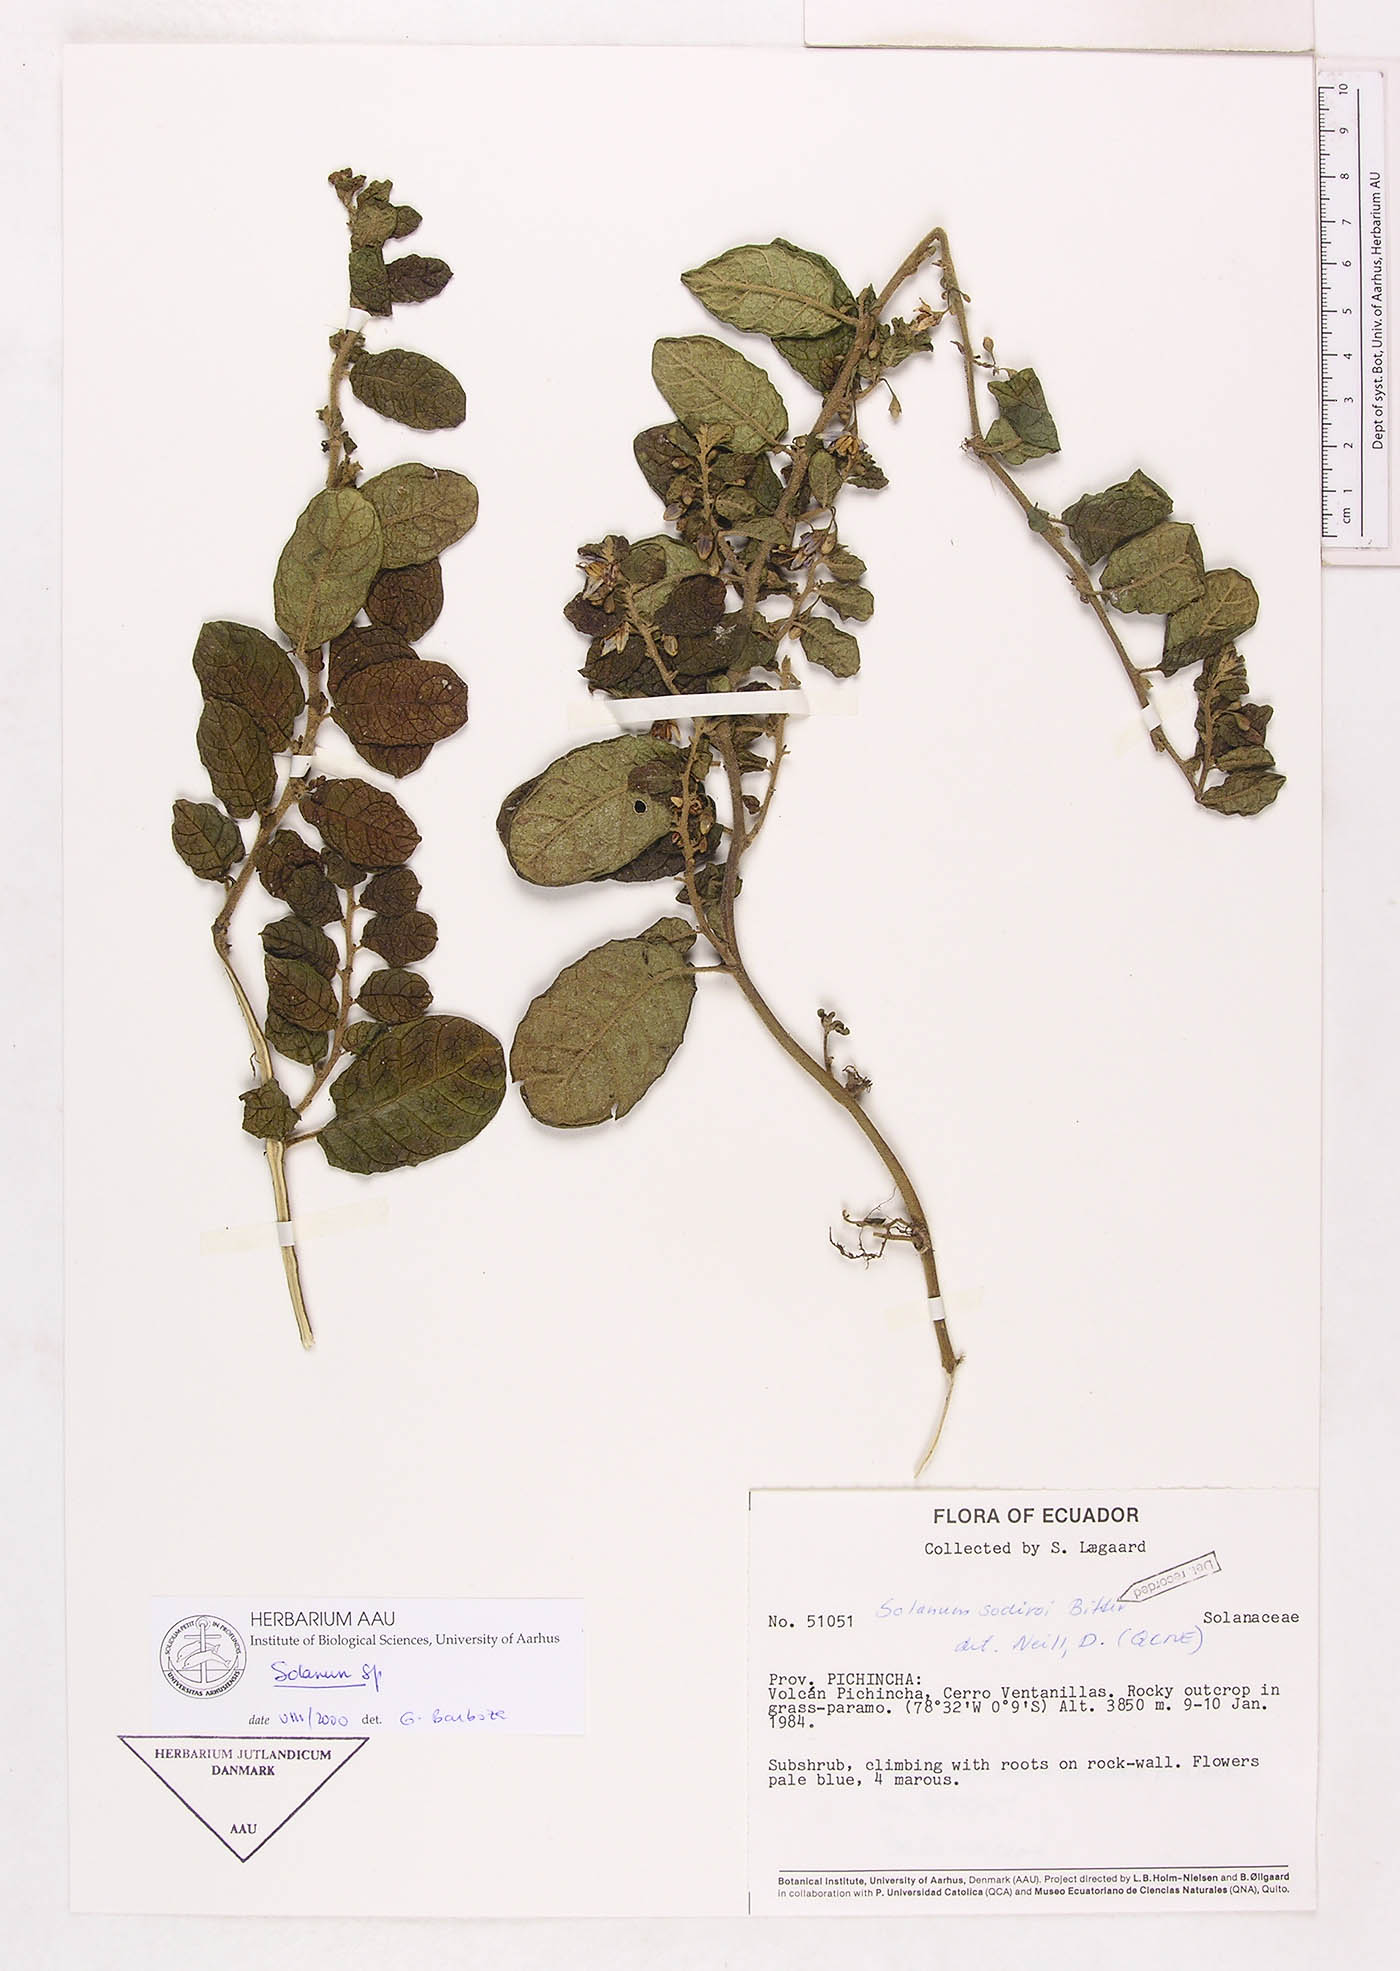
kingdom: Plantae
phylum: Tracheophyta
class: Magnoliopsida
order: Solanales
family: Solanaceae
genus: Solanum
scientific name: Solanum
